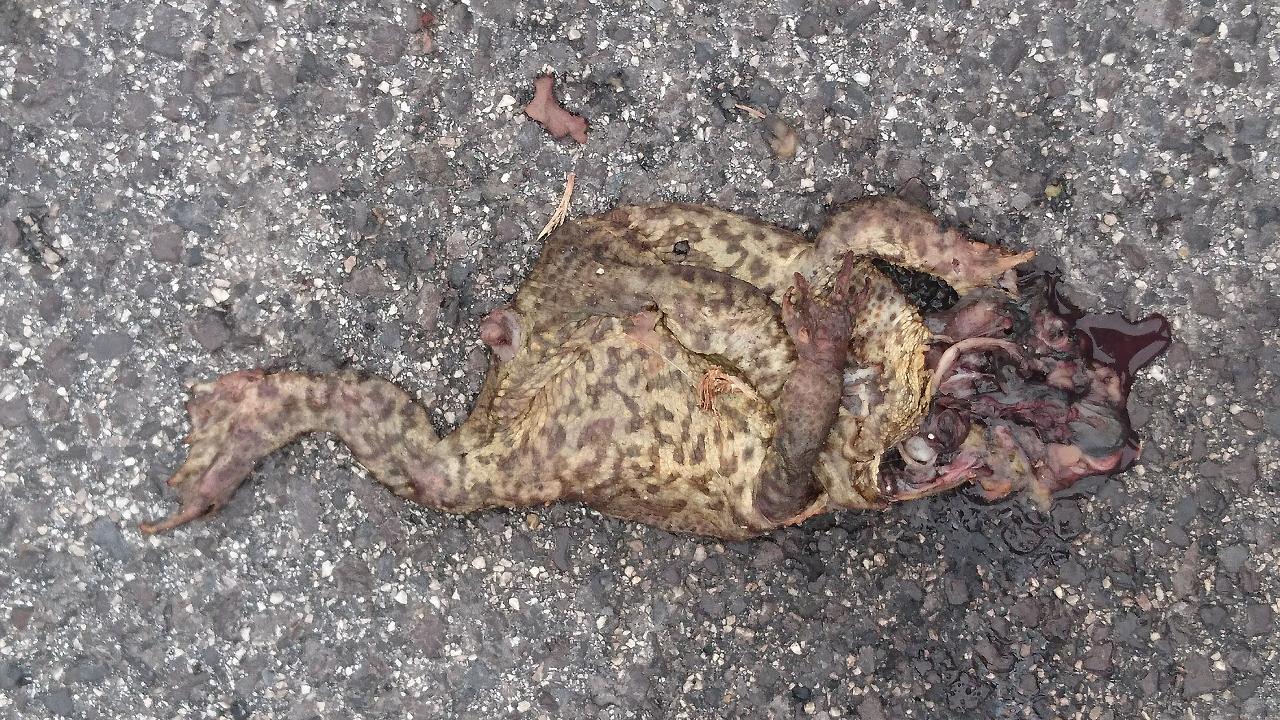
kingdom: Animalia
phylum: Chordata
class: Amphibia
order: Anura
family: Bufonidae
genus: Bufo
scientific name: Bufo bufo
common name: Common toad
